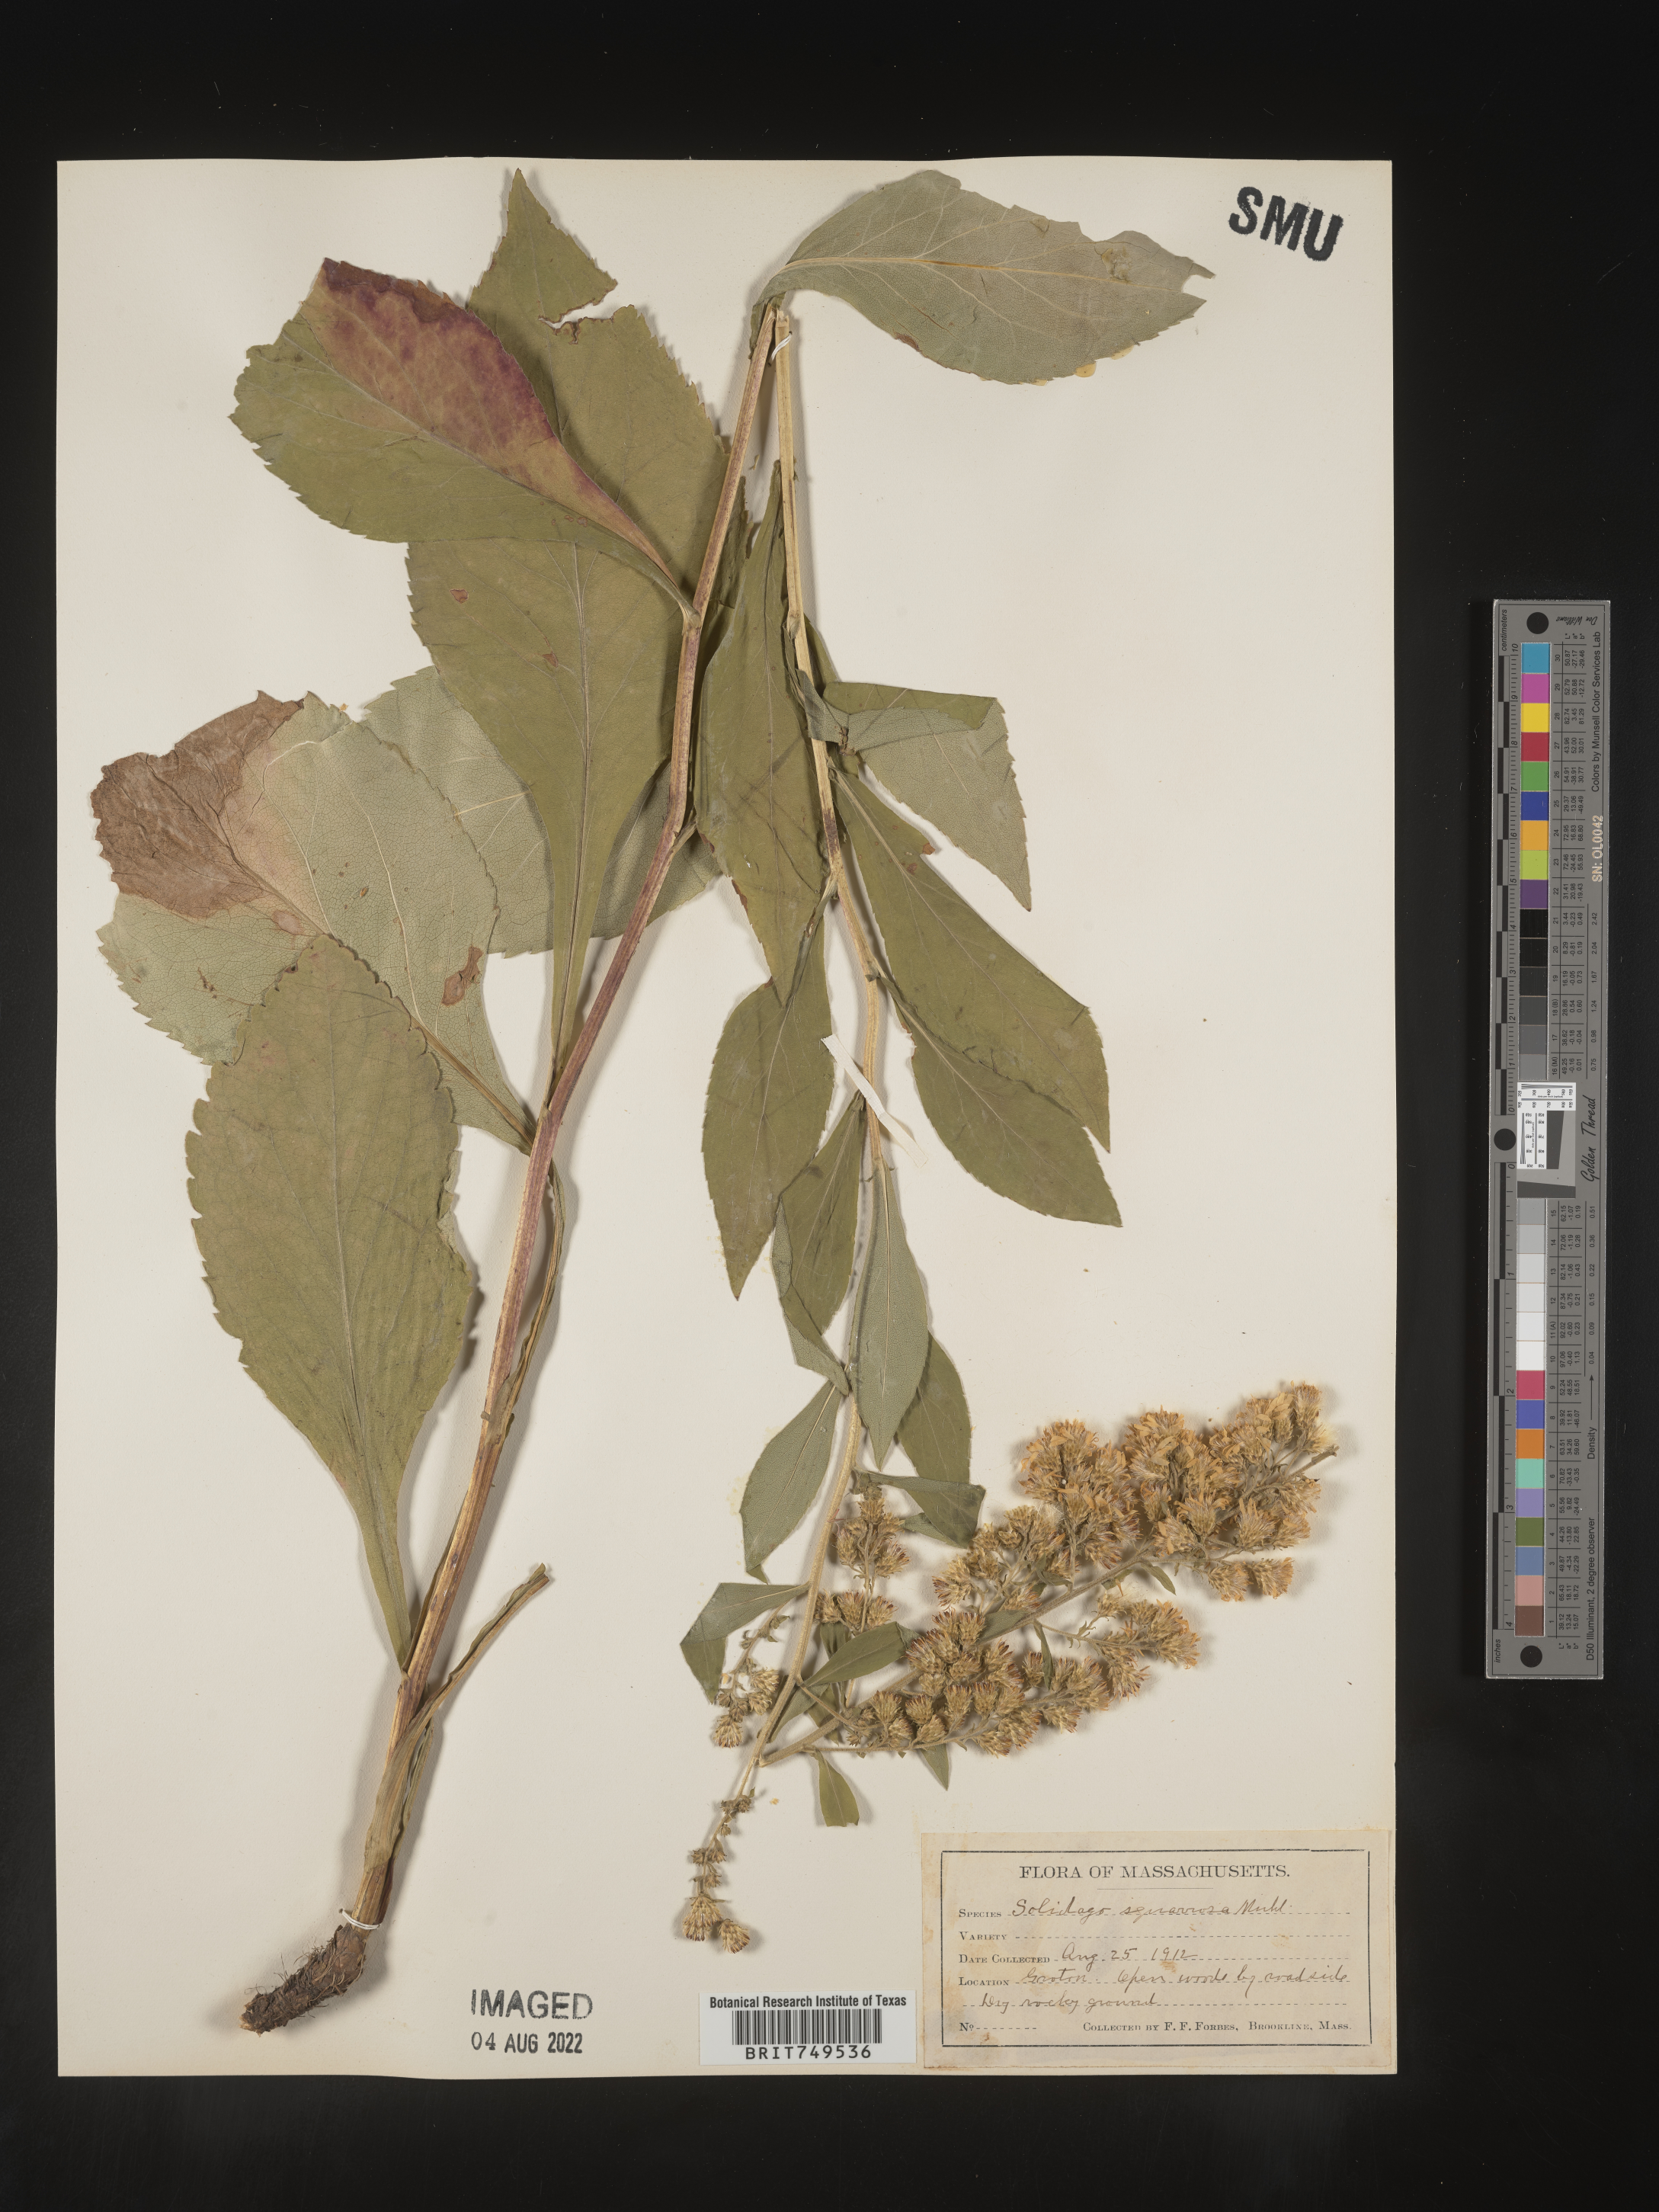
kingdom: Plantae
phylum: Tracheophyta
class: Magnoliopsida
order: Asterales
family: Asteraceae
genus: Solidago
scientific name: Solidago squarrosa
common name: Stout goldenrod
